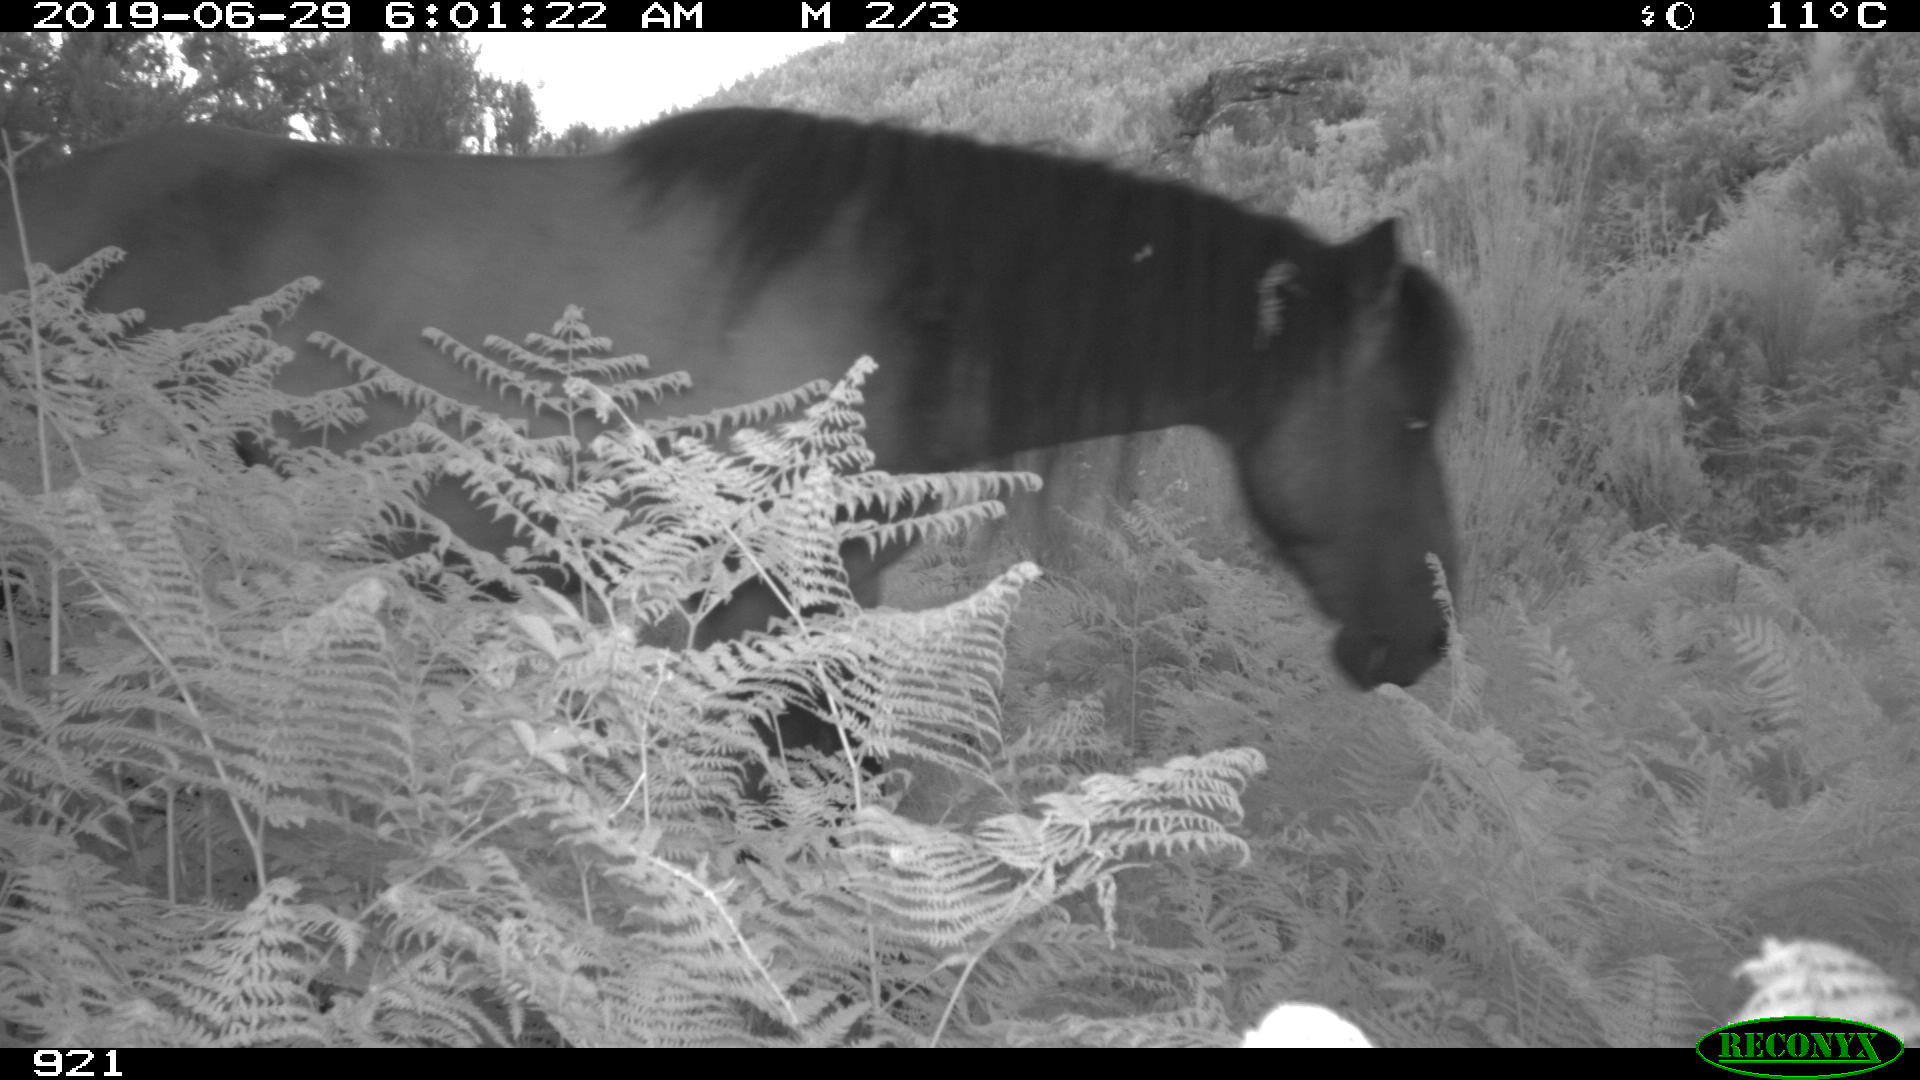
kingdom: Animalia
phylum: Chordata
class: Mammalia
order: Perissodactyla
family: Equidae
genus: Equus
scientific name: Equus caballus
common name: Horse
